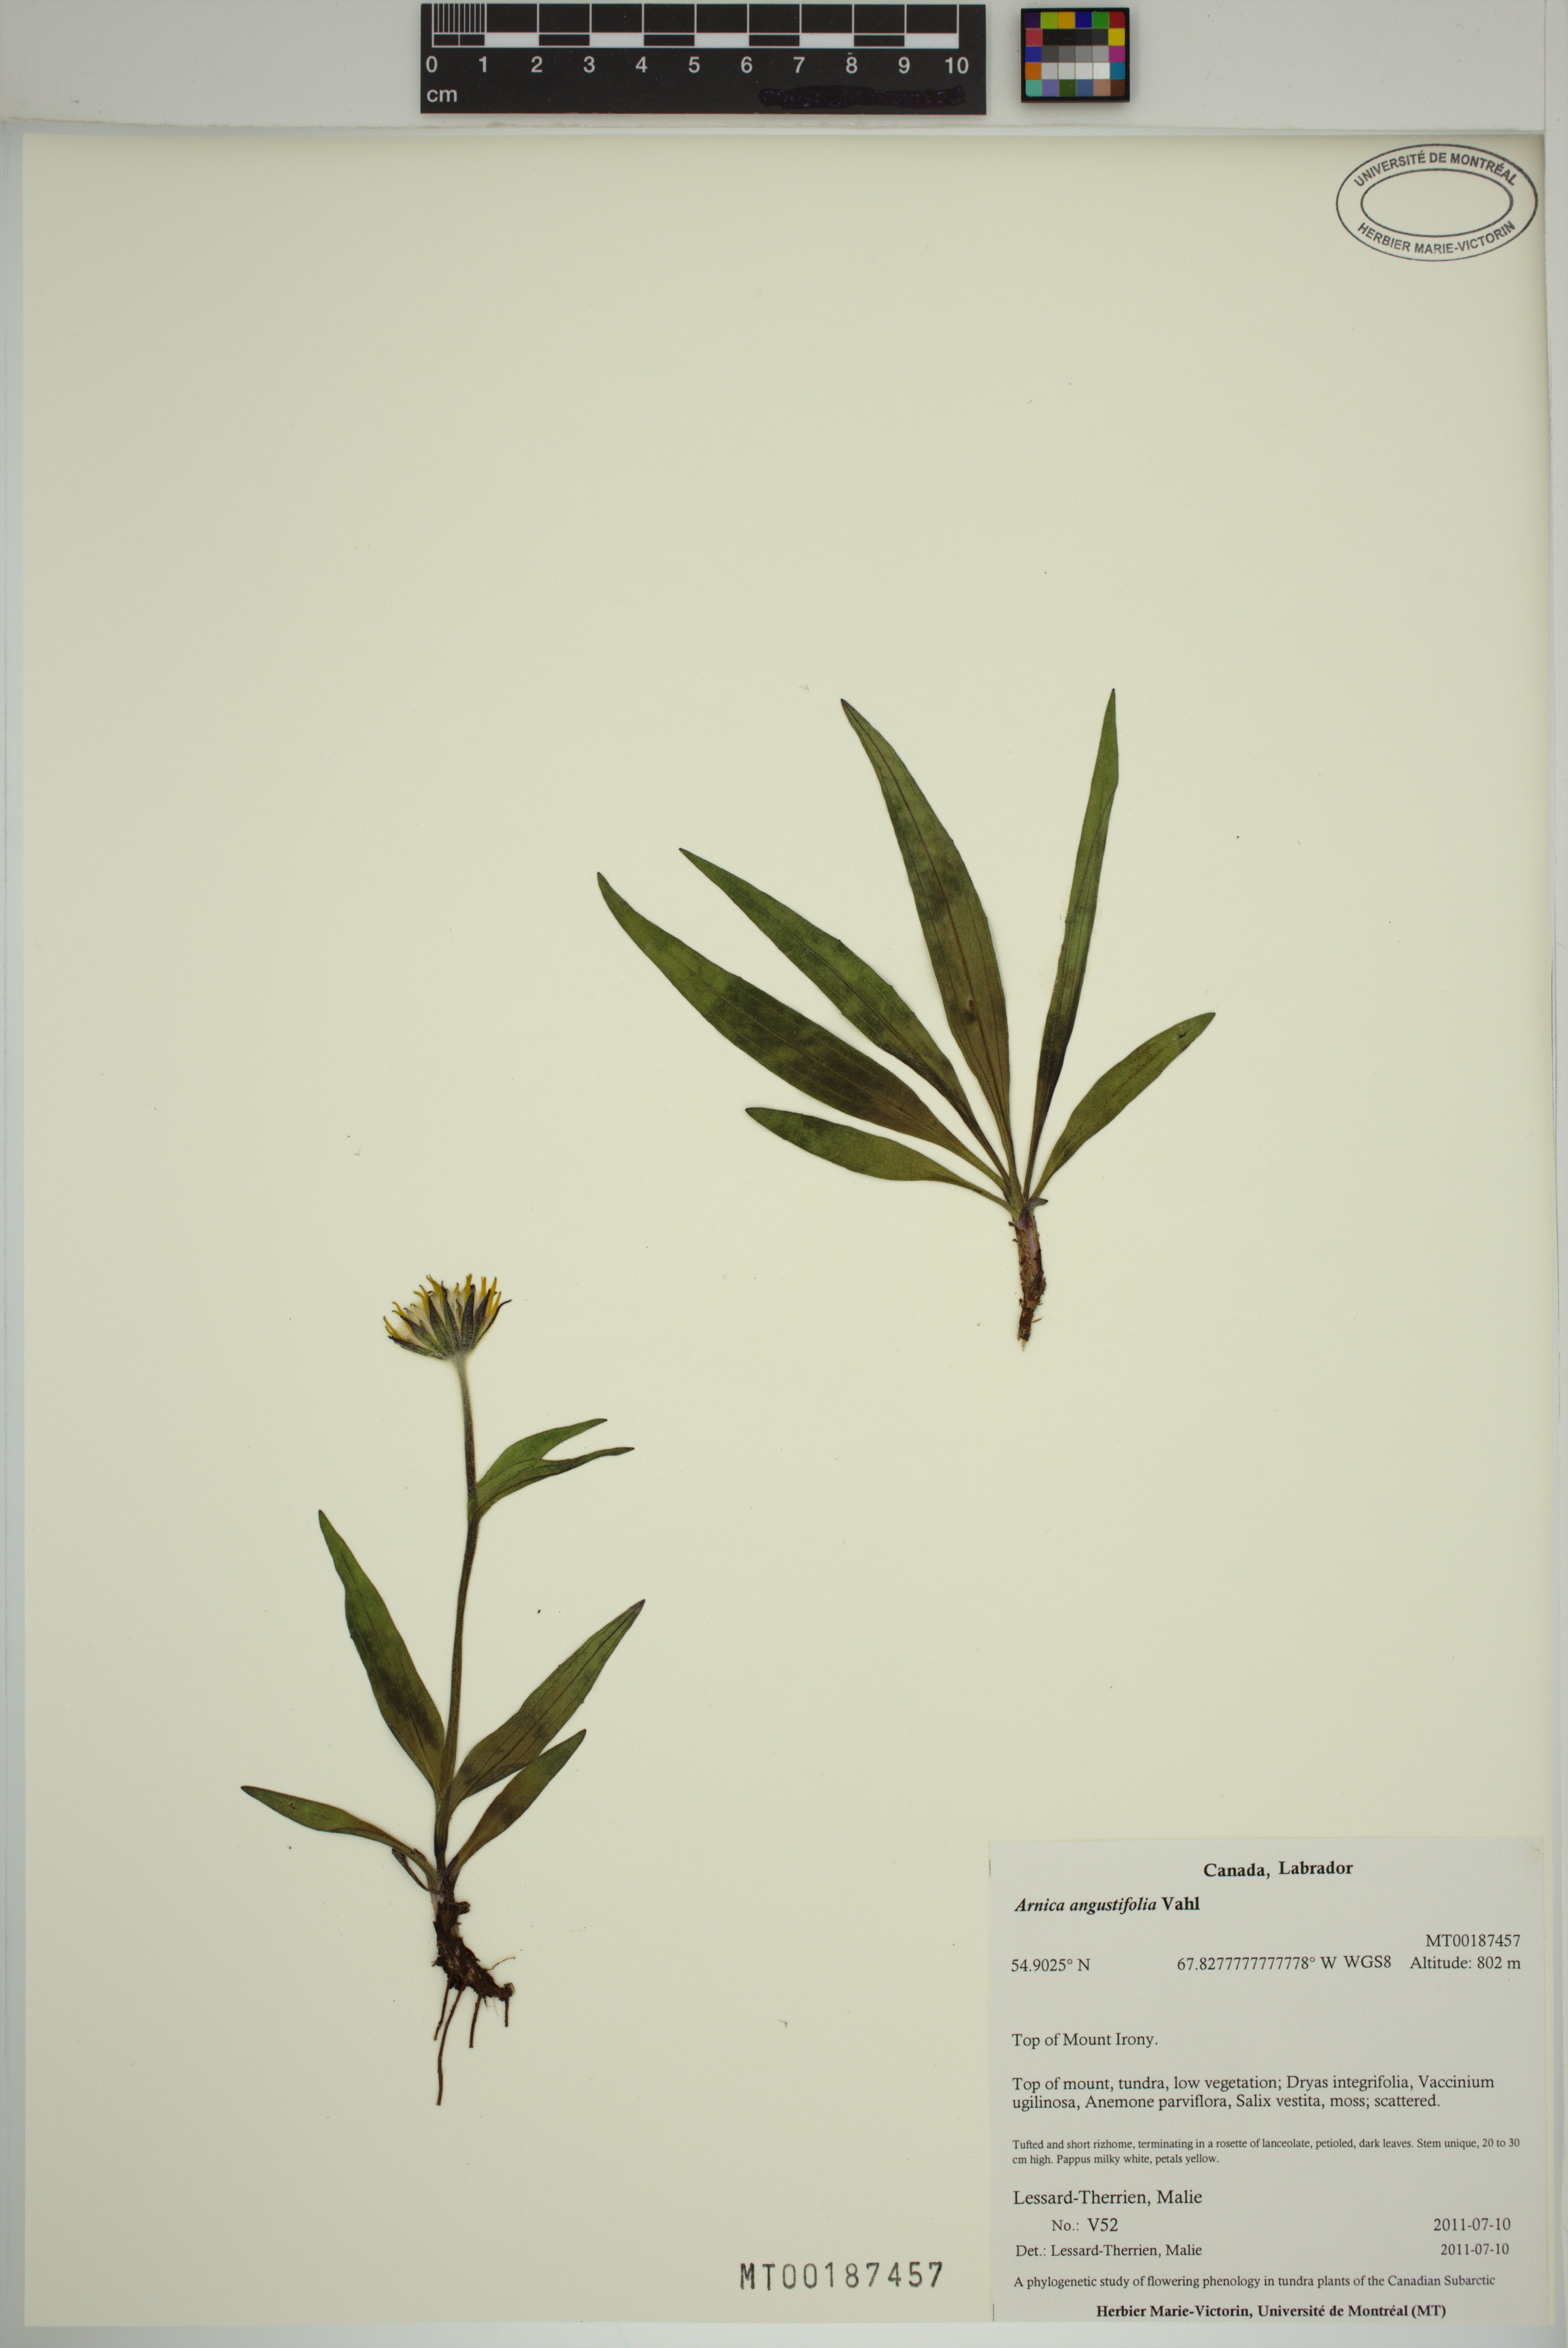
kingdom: Plantae
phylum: Tracheophyta
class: Magnoliopsida
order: Asterales
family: Asteraceae
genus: Arnica
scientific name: Arnica angustifolia
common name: Arctic arnica
